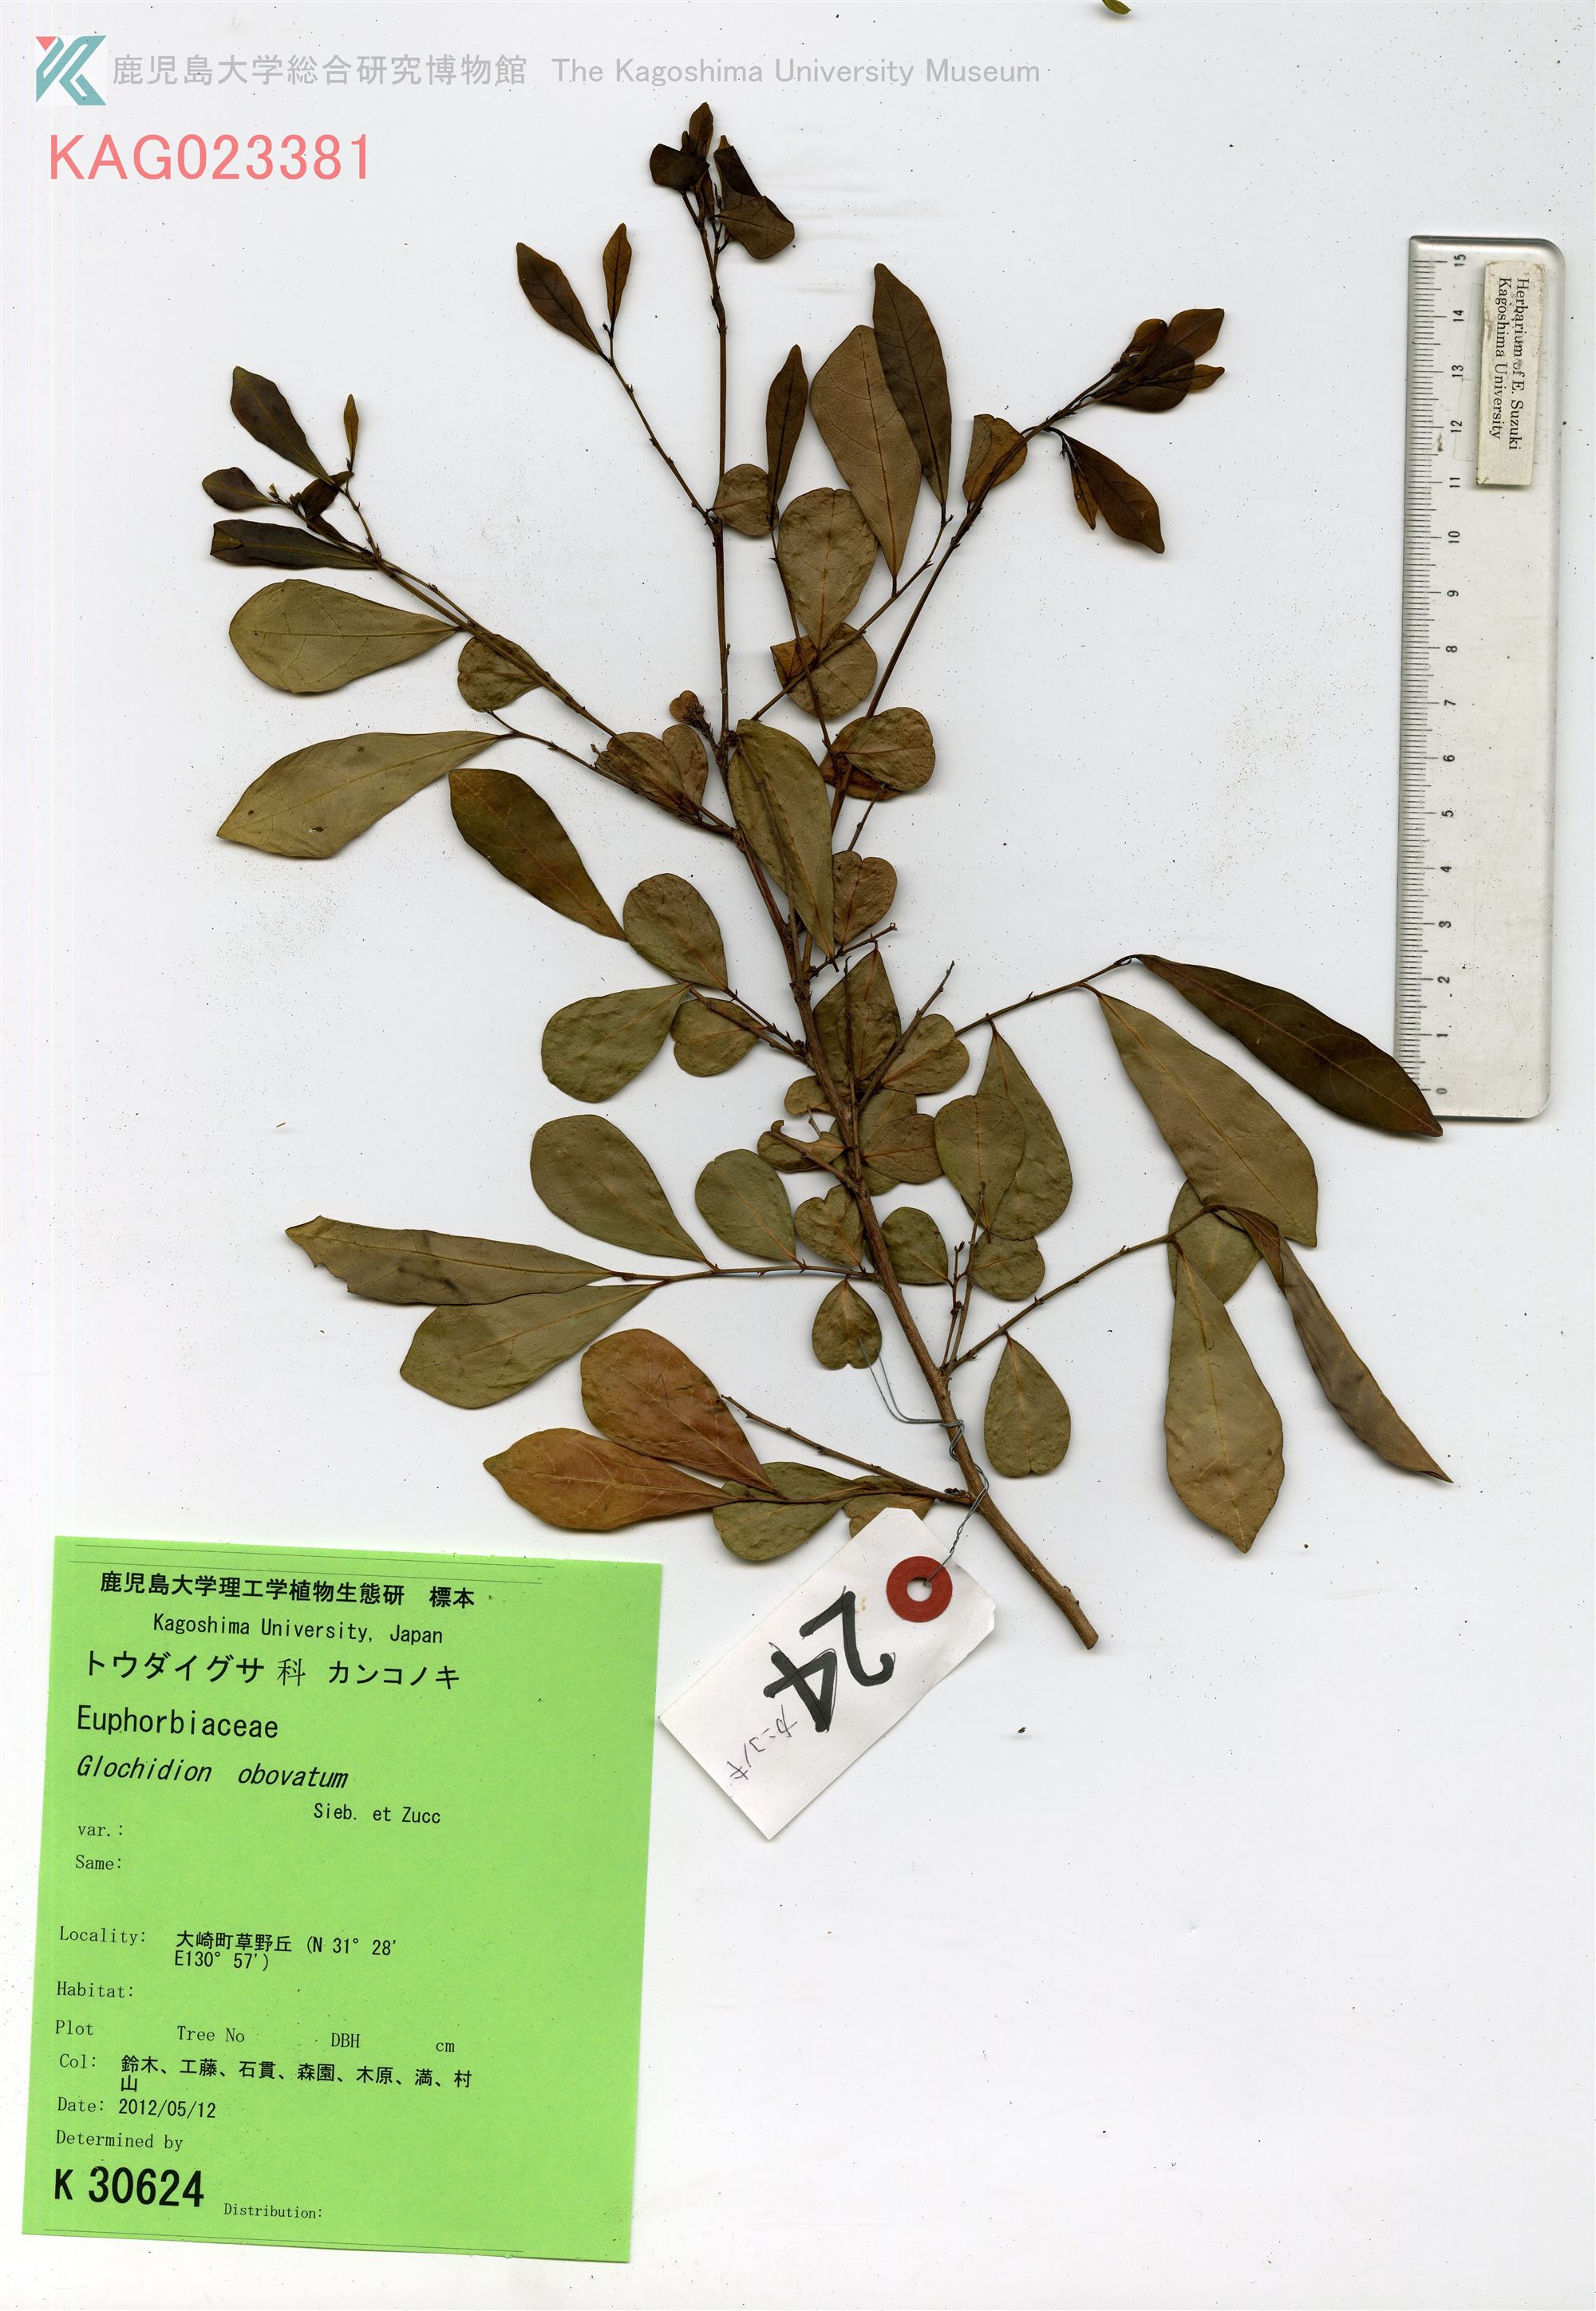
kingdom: Plantae
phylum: Tracheophyta
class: Magnoliopsida
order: Malpighiales
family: Phyllanthaceae
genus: Glochidion
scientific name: Glochidion obovatum
